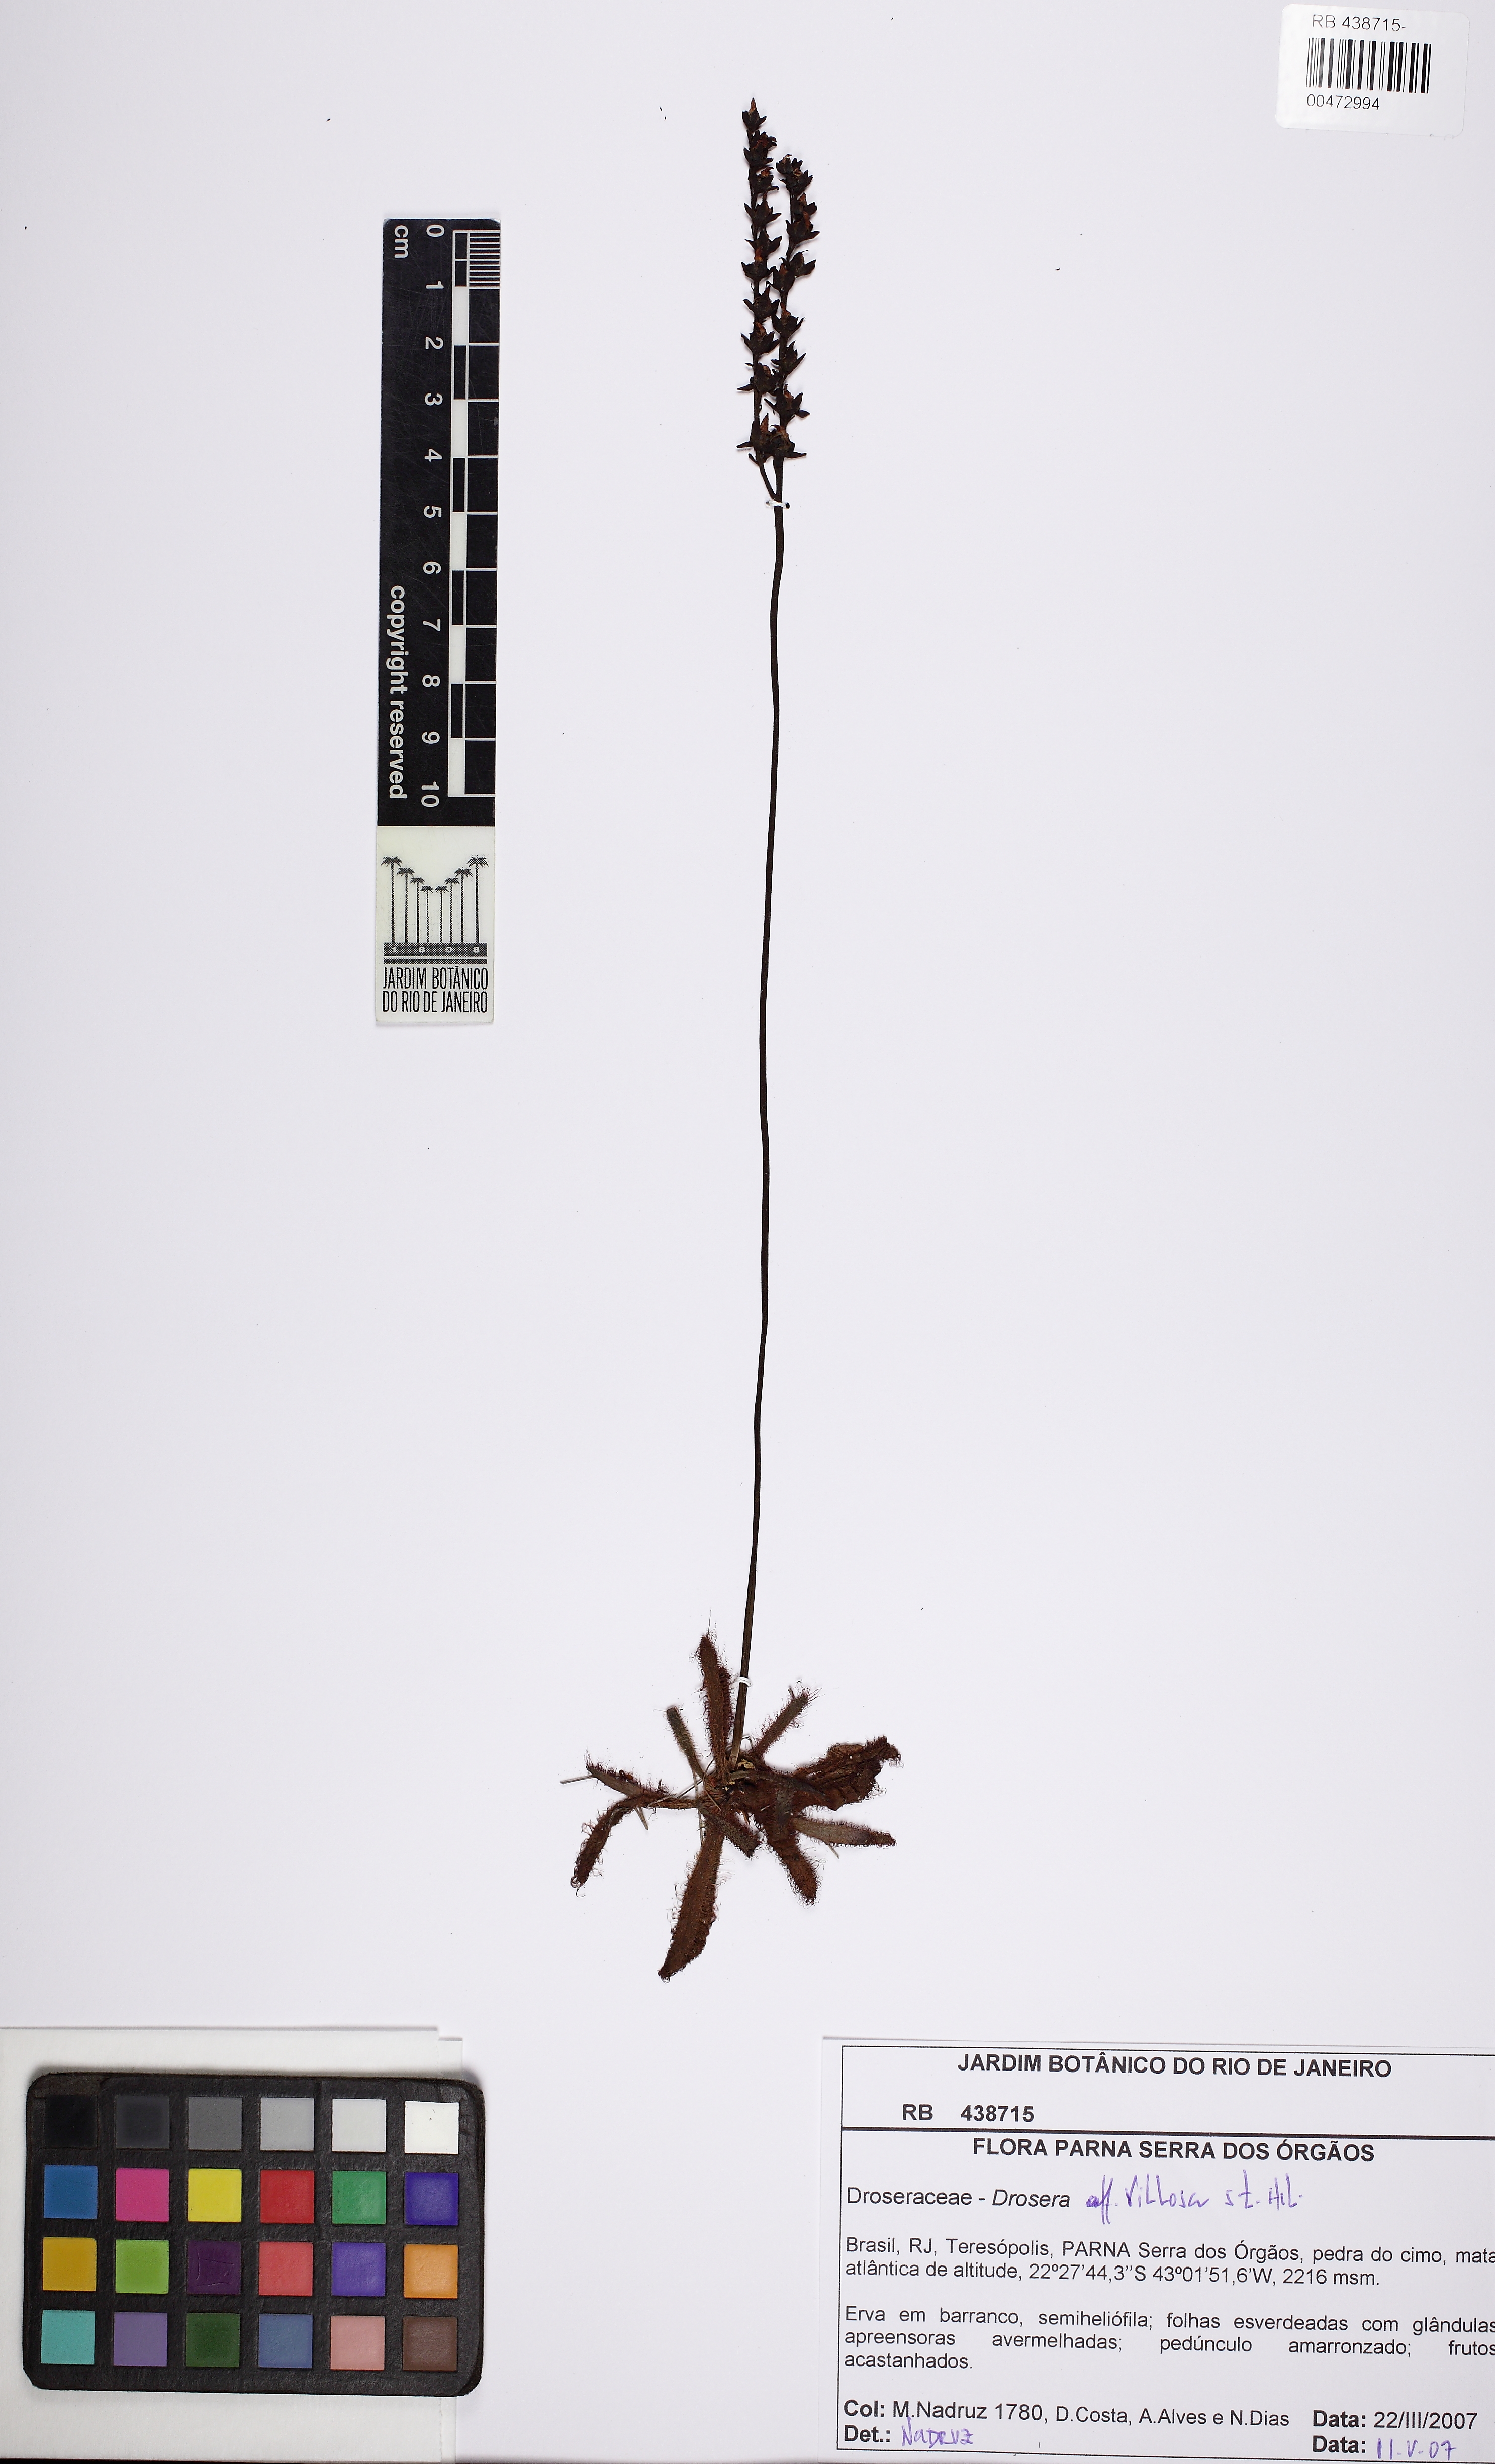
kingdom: Plantae
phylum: Tracheophyta
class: Magnoliopsida
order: Caryophyllales
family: Droseraceae
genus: Drosera
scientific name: Drosera latifolia
